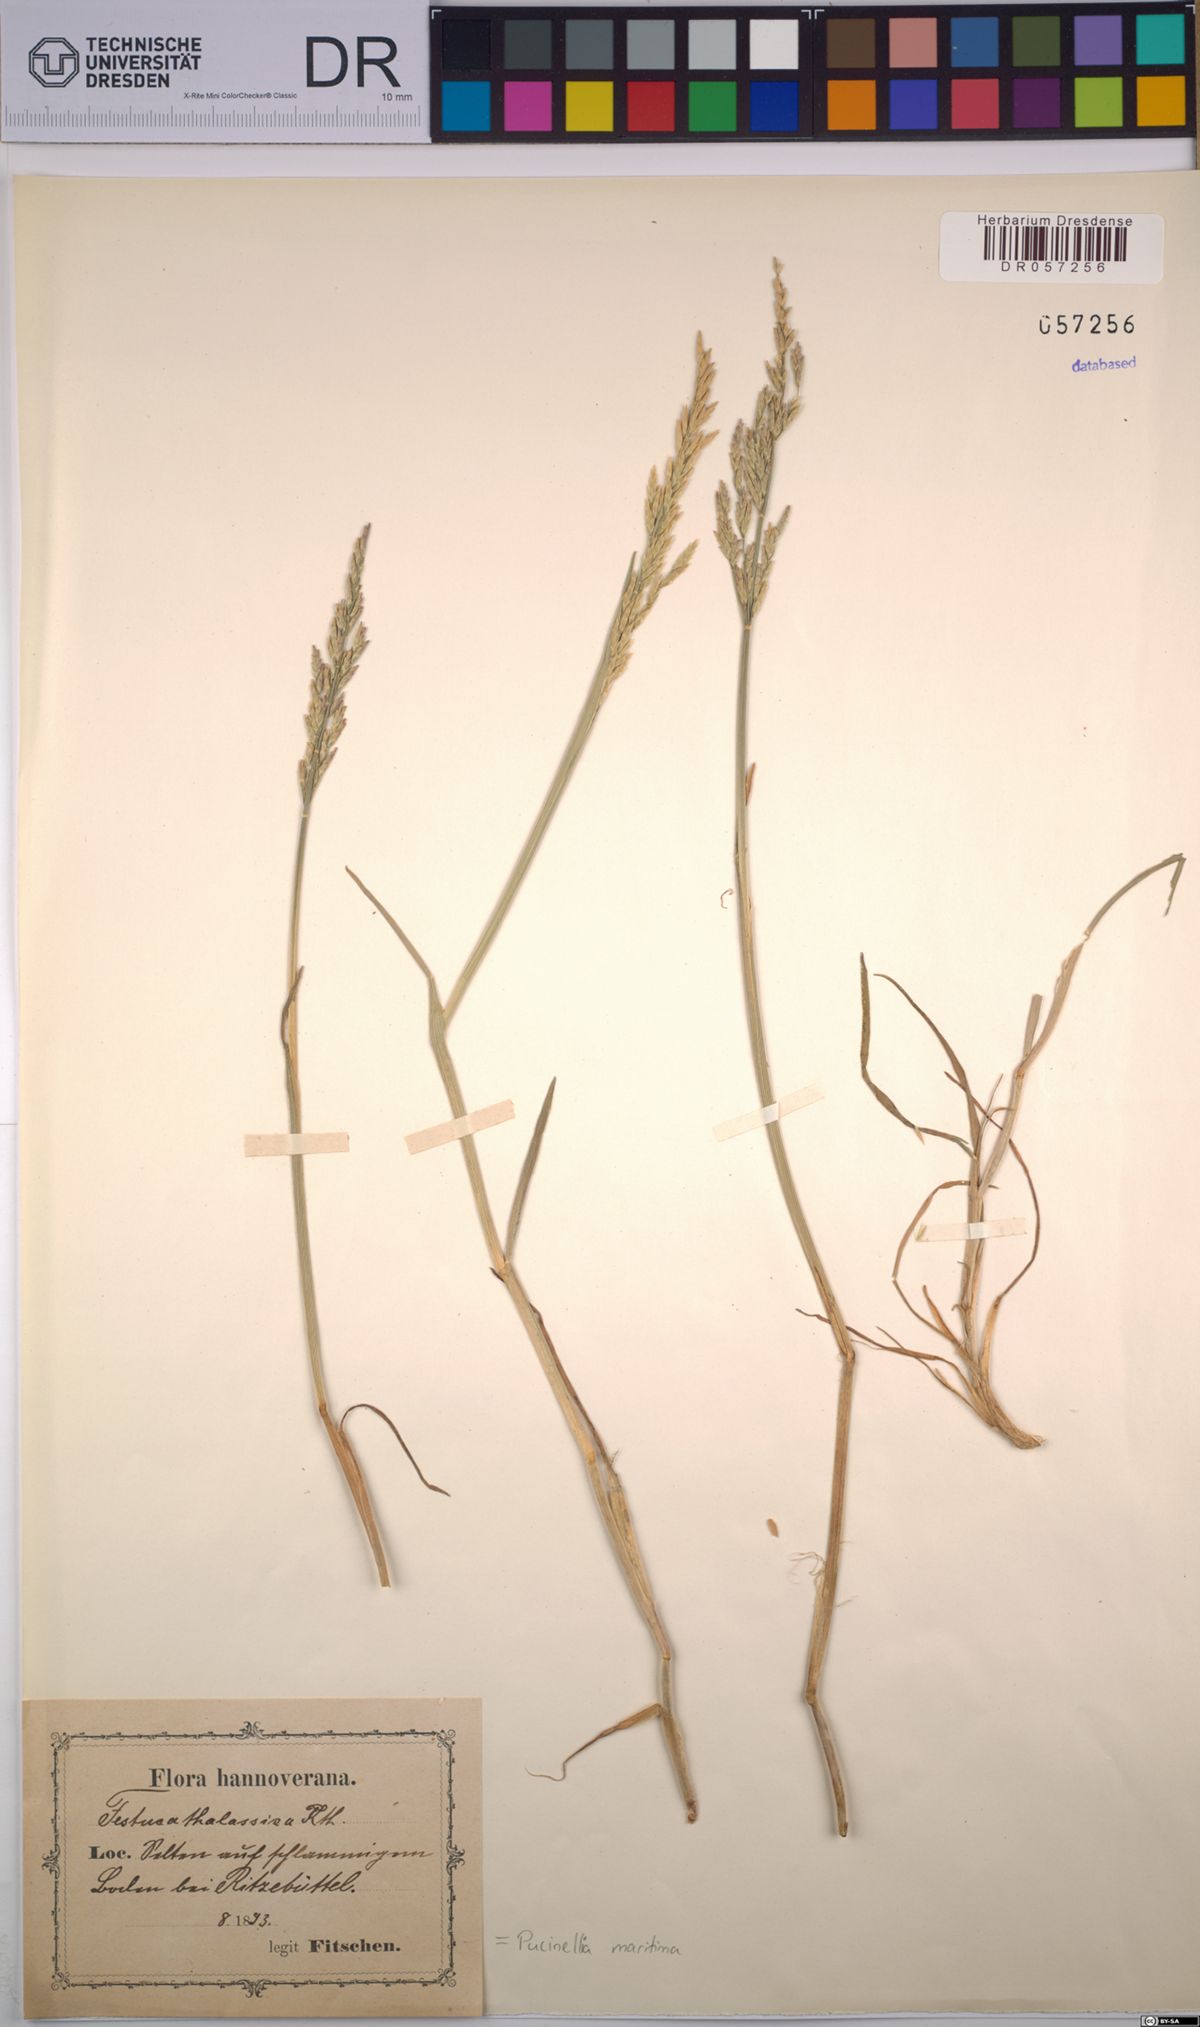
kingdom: Plantae
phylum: Tracheophyta
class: Liliopsida
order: Poales
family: Poaceae
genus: Puccinellia
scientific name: Puccinellia maritima
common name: Common saltmarsh grass
